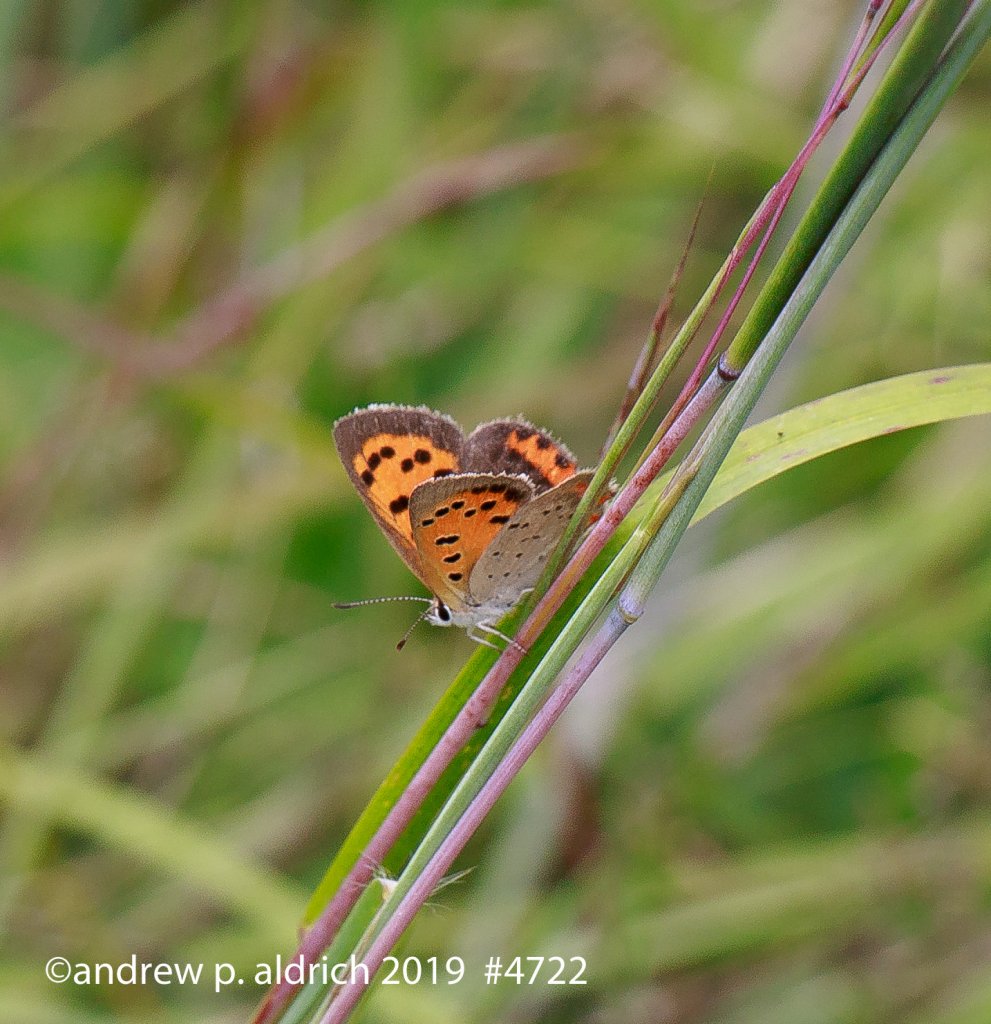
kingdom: Animalia
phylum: Arthropoda
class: Insecta
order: Lepidoptera
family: Lycaenidae
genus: Lycaena
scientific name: Lycaena phlaeas
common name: American Copper
